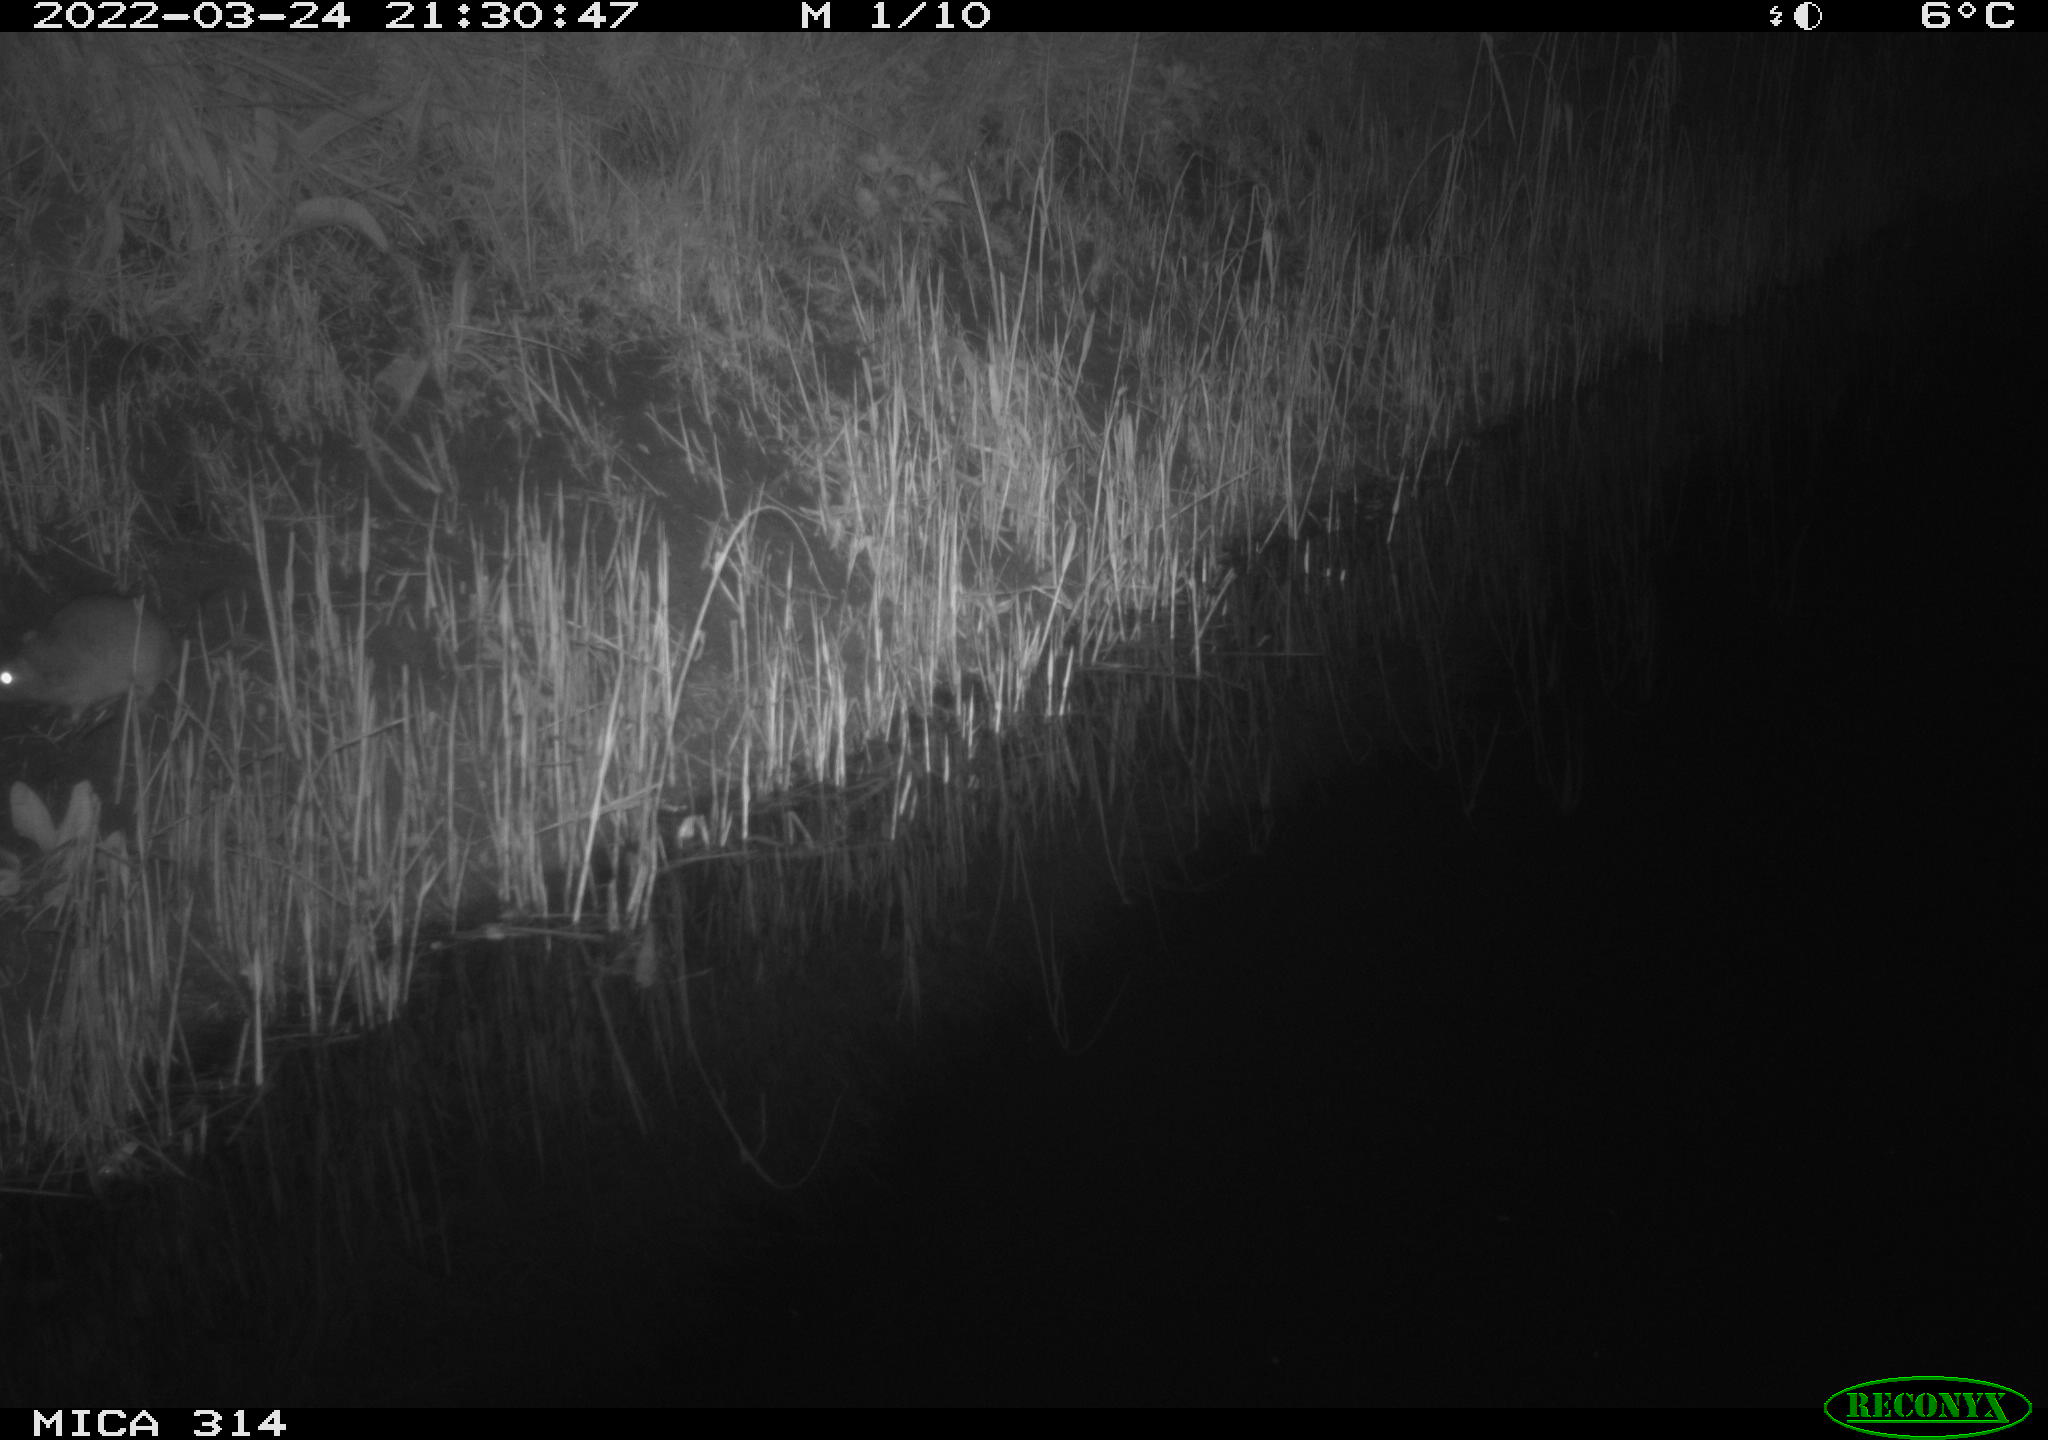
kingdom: Animalia
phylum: Chordata
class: Mammalia
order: Rodentia
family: Muridae
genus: Rattus
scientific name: Rattus norvegicus
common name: Brown rat
